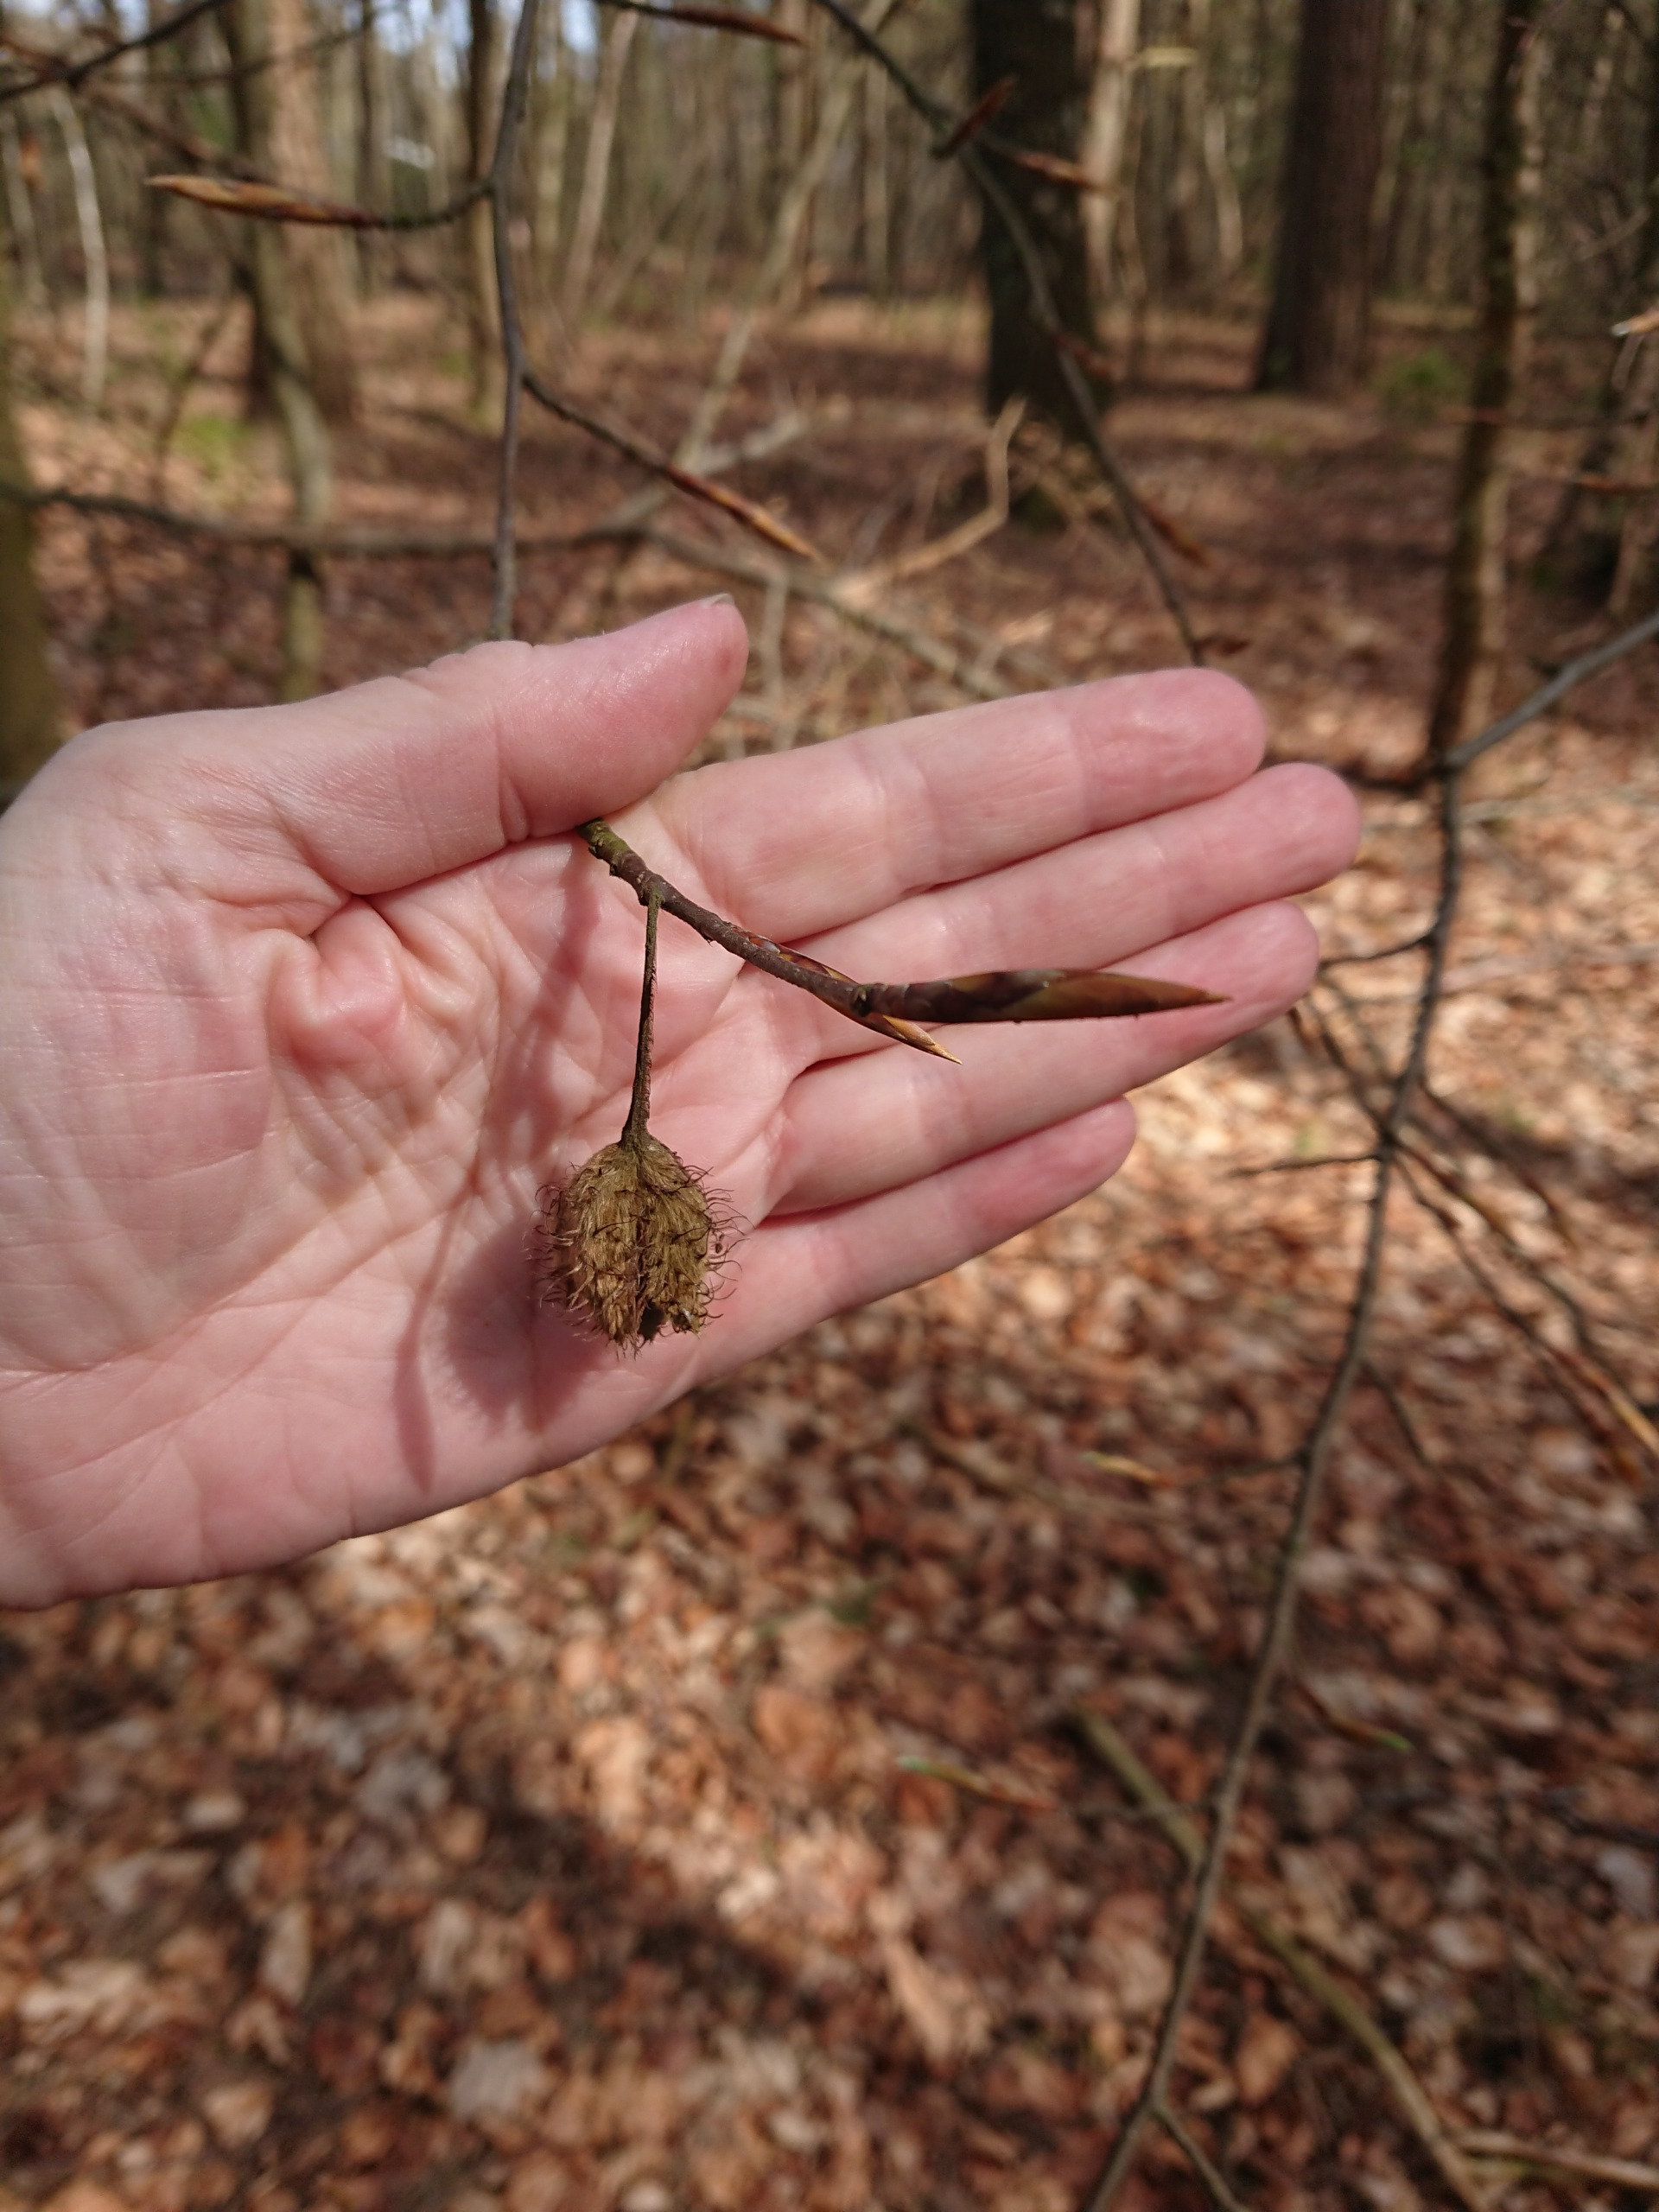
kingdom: Plantae
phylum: Tracheophyta
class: Magnoliopsida
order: Fagales
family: Fagaceae
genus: Fagus
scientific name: Fagus sylvatica
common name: Bøg
